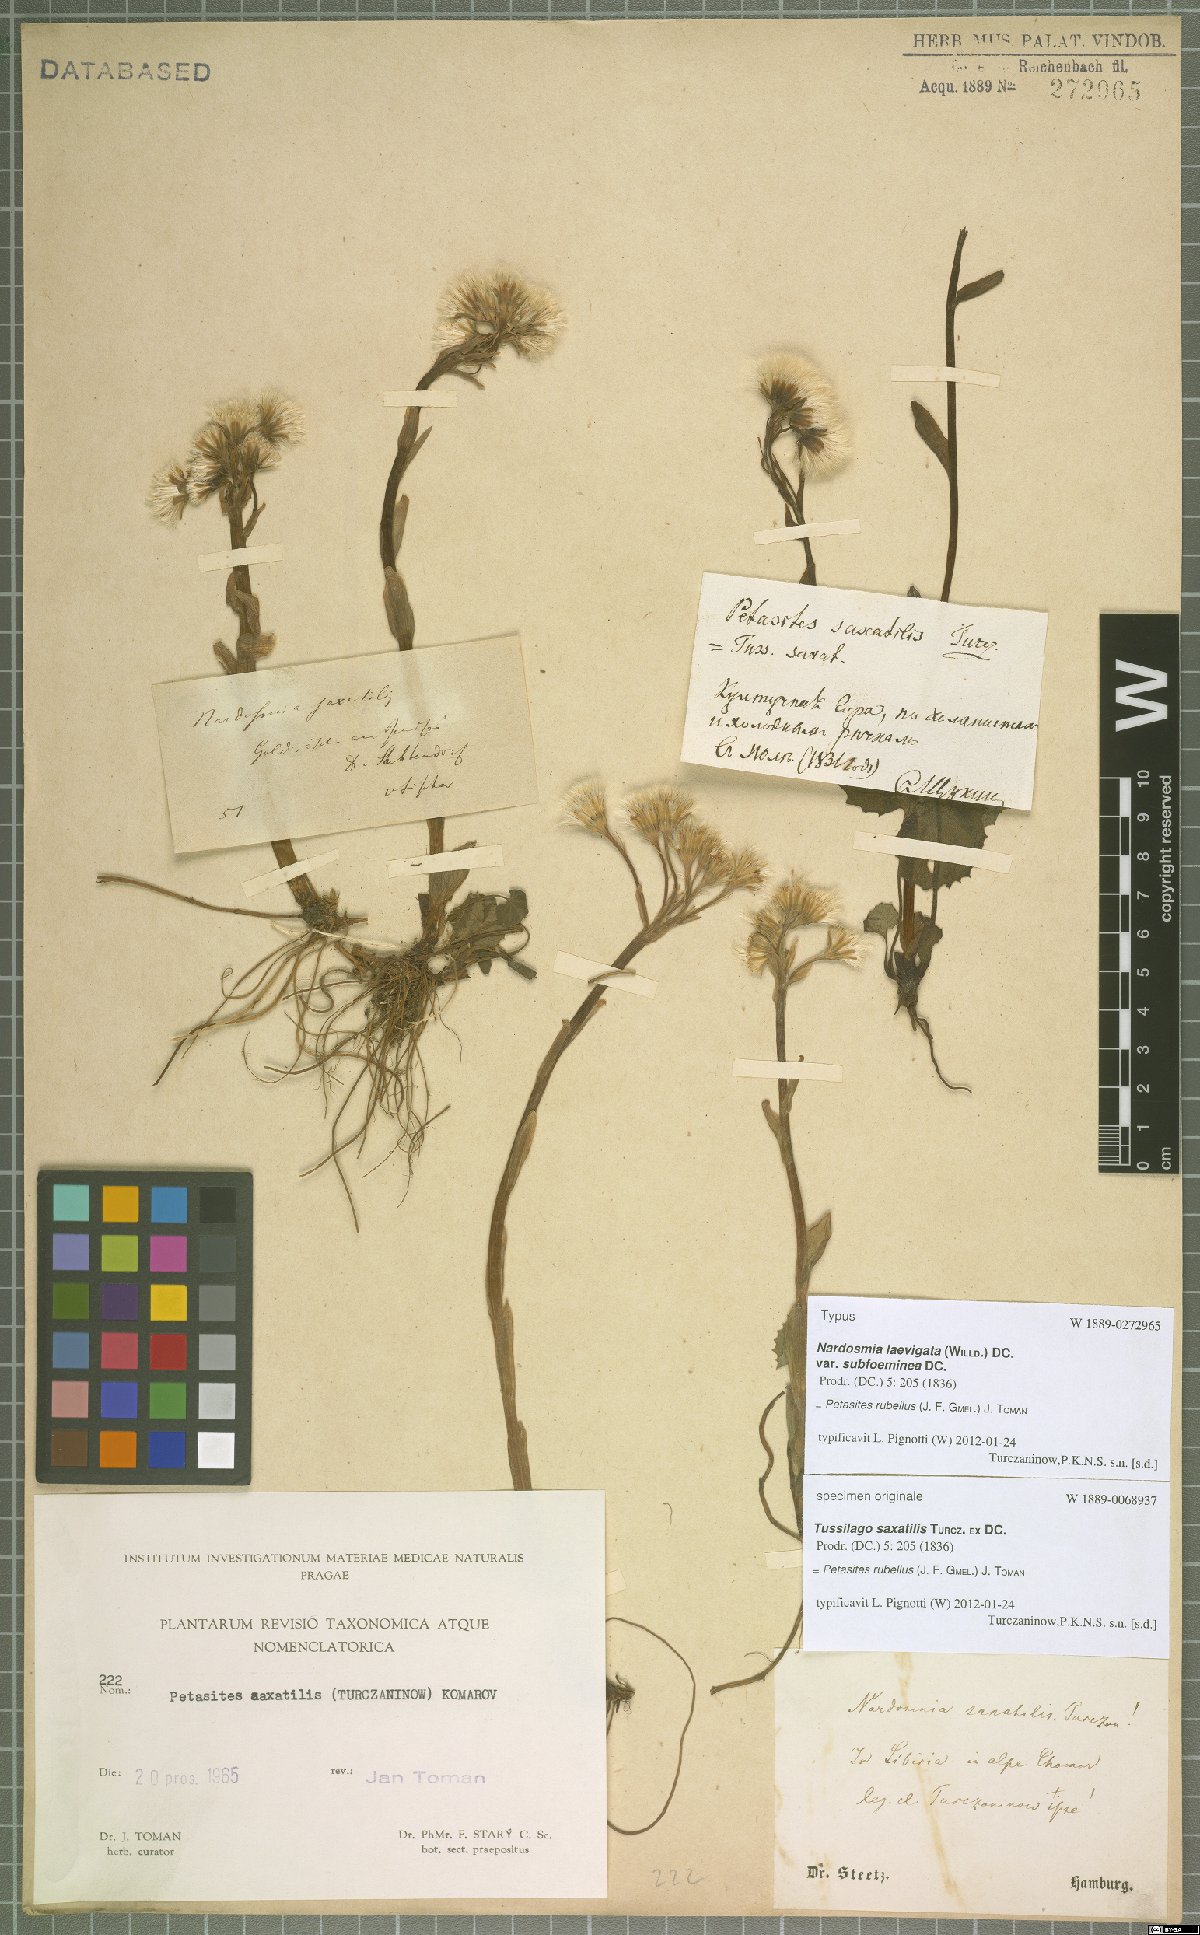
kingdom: Plantae
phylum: Tracheophyta
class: Magnoliopsida
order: Asterales
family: Asteraceae
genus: Petasites
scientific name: Petasites rubellus
